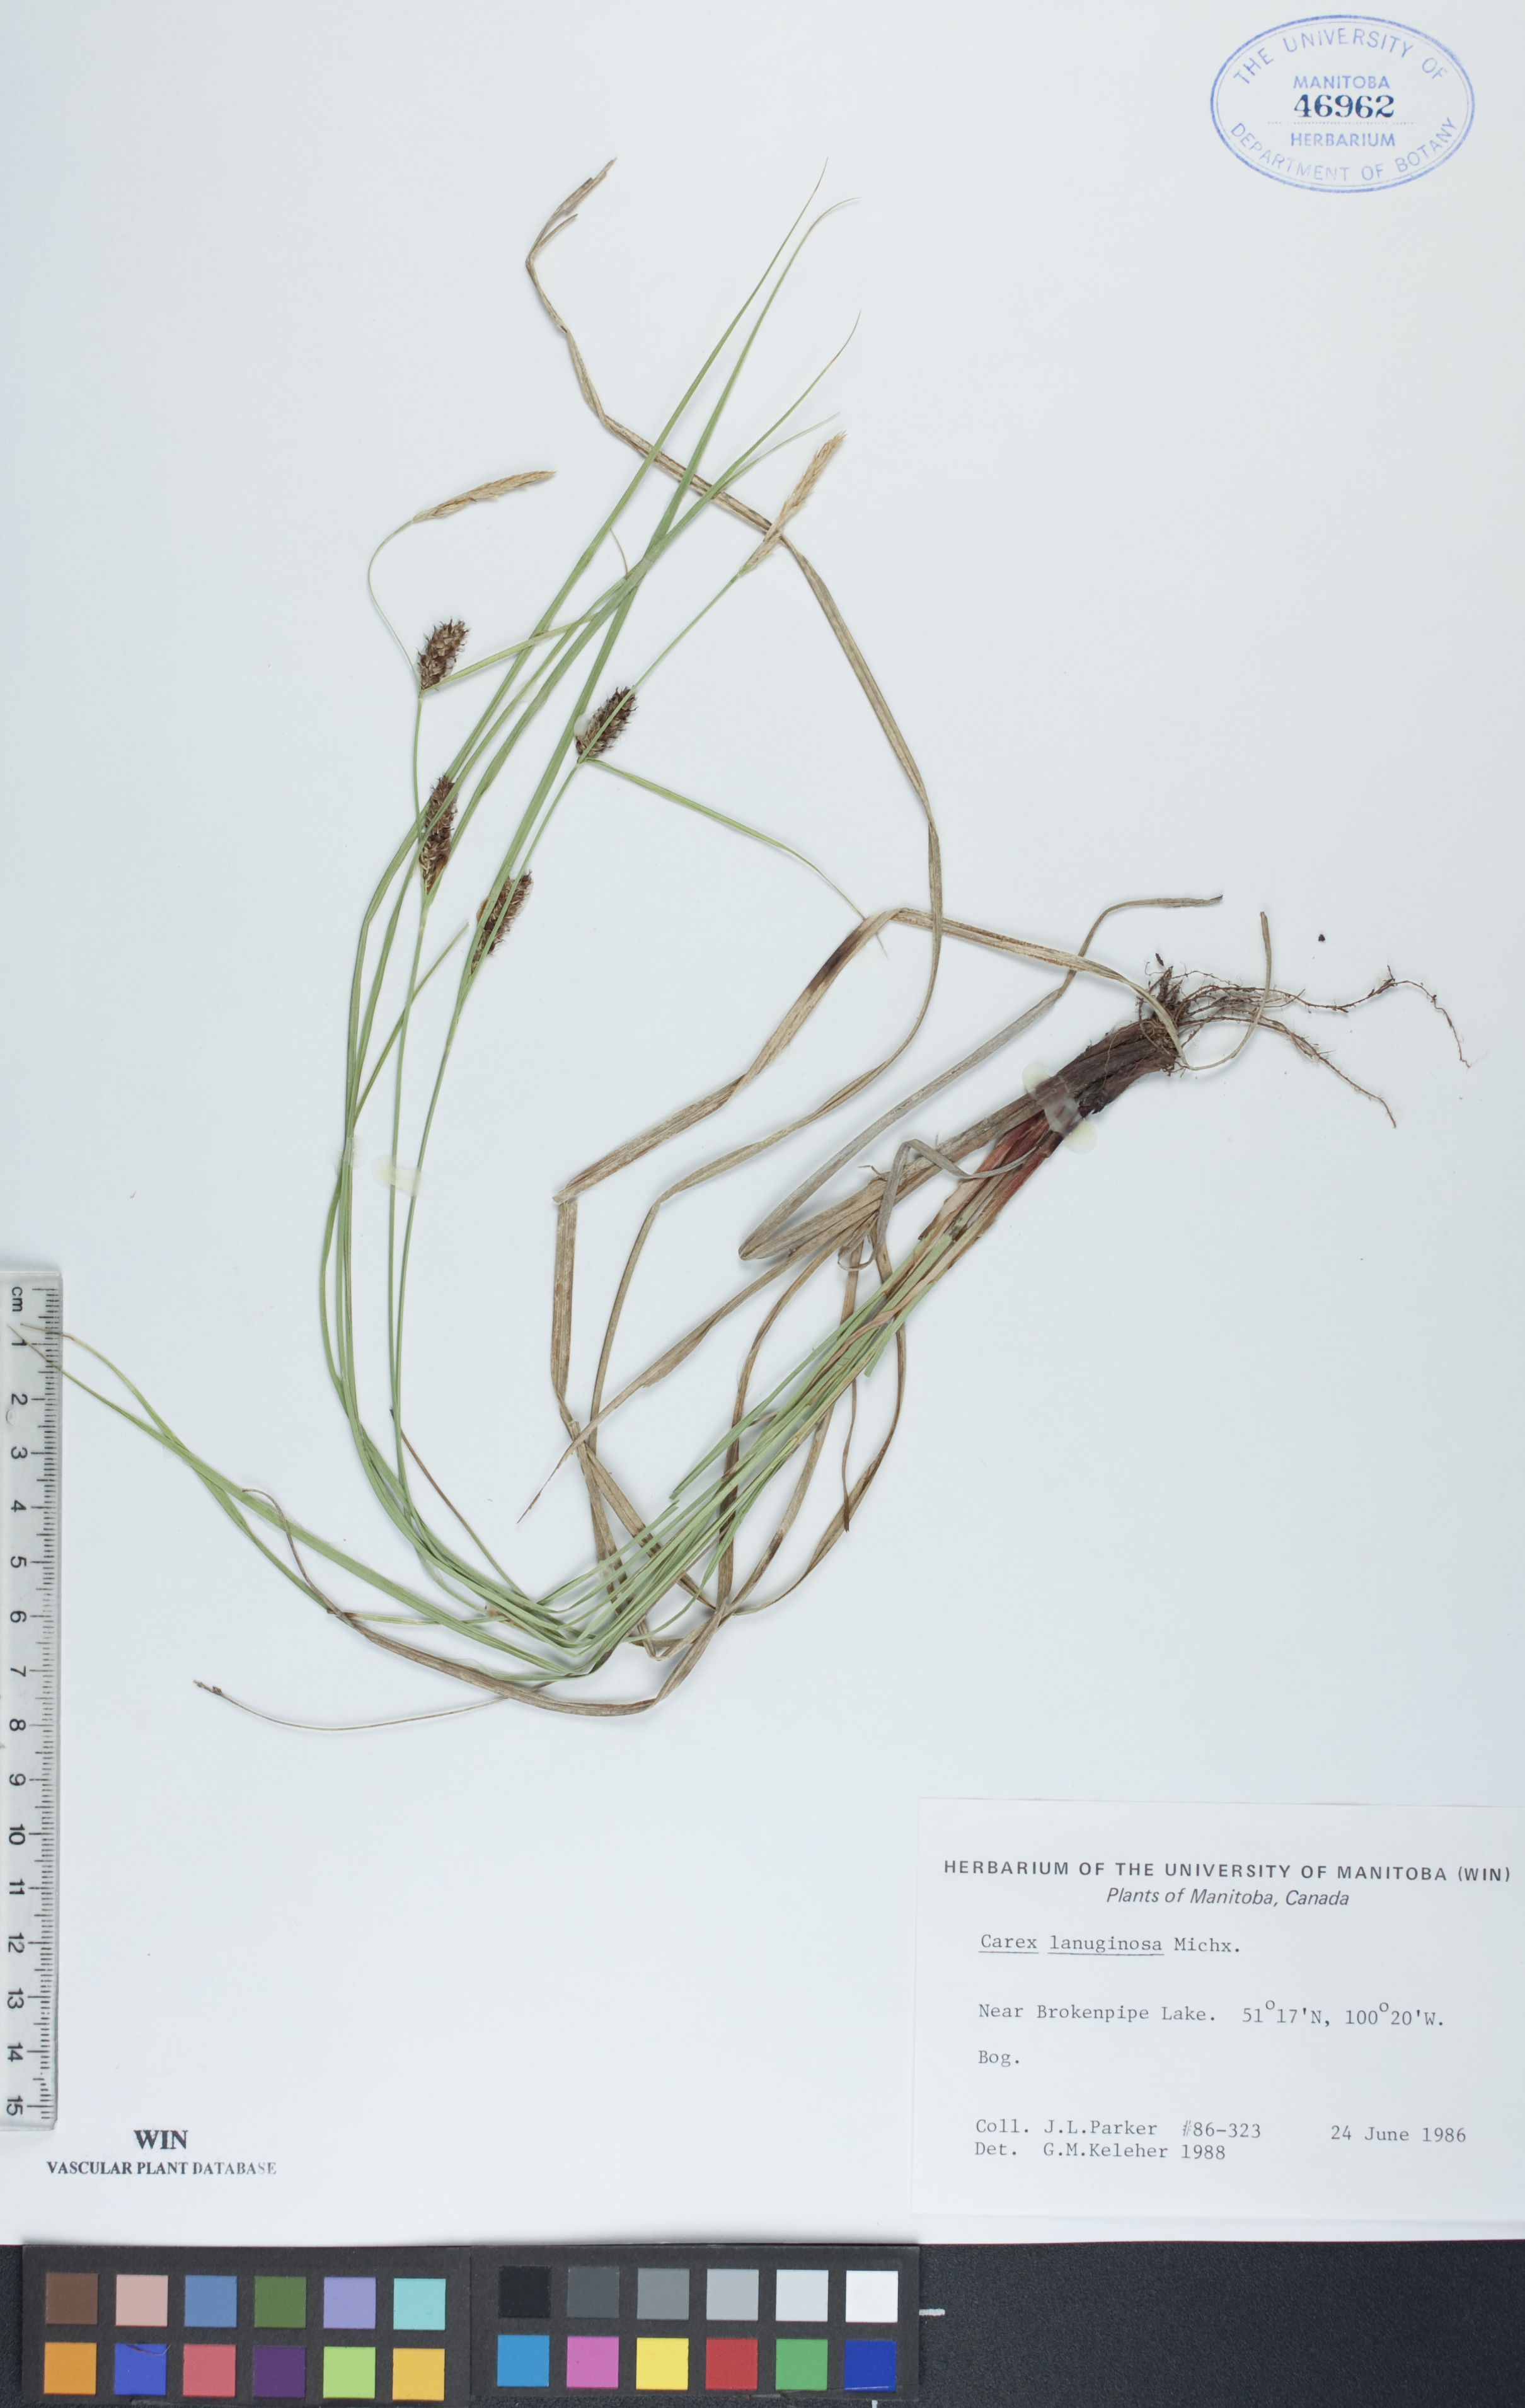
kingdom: Plantae
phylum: Tracheophyta
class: Liliopsida
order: Poales
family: Cyperaceae
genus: Carex
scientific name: Carex lasiocarpa
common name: Slender sedge
